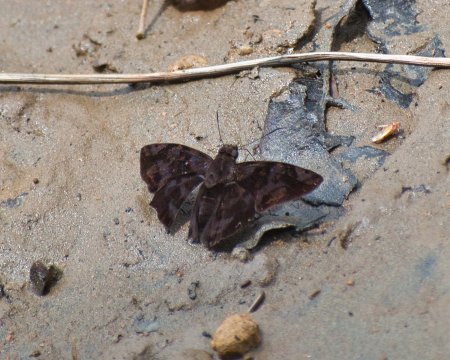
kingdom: Animalia
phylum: Arthropoda
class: Insecta
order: Lepidoptera
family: Hesperiidae
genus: Antigonus
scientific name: Antigonus nearchus
